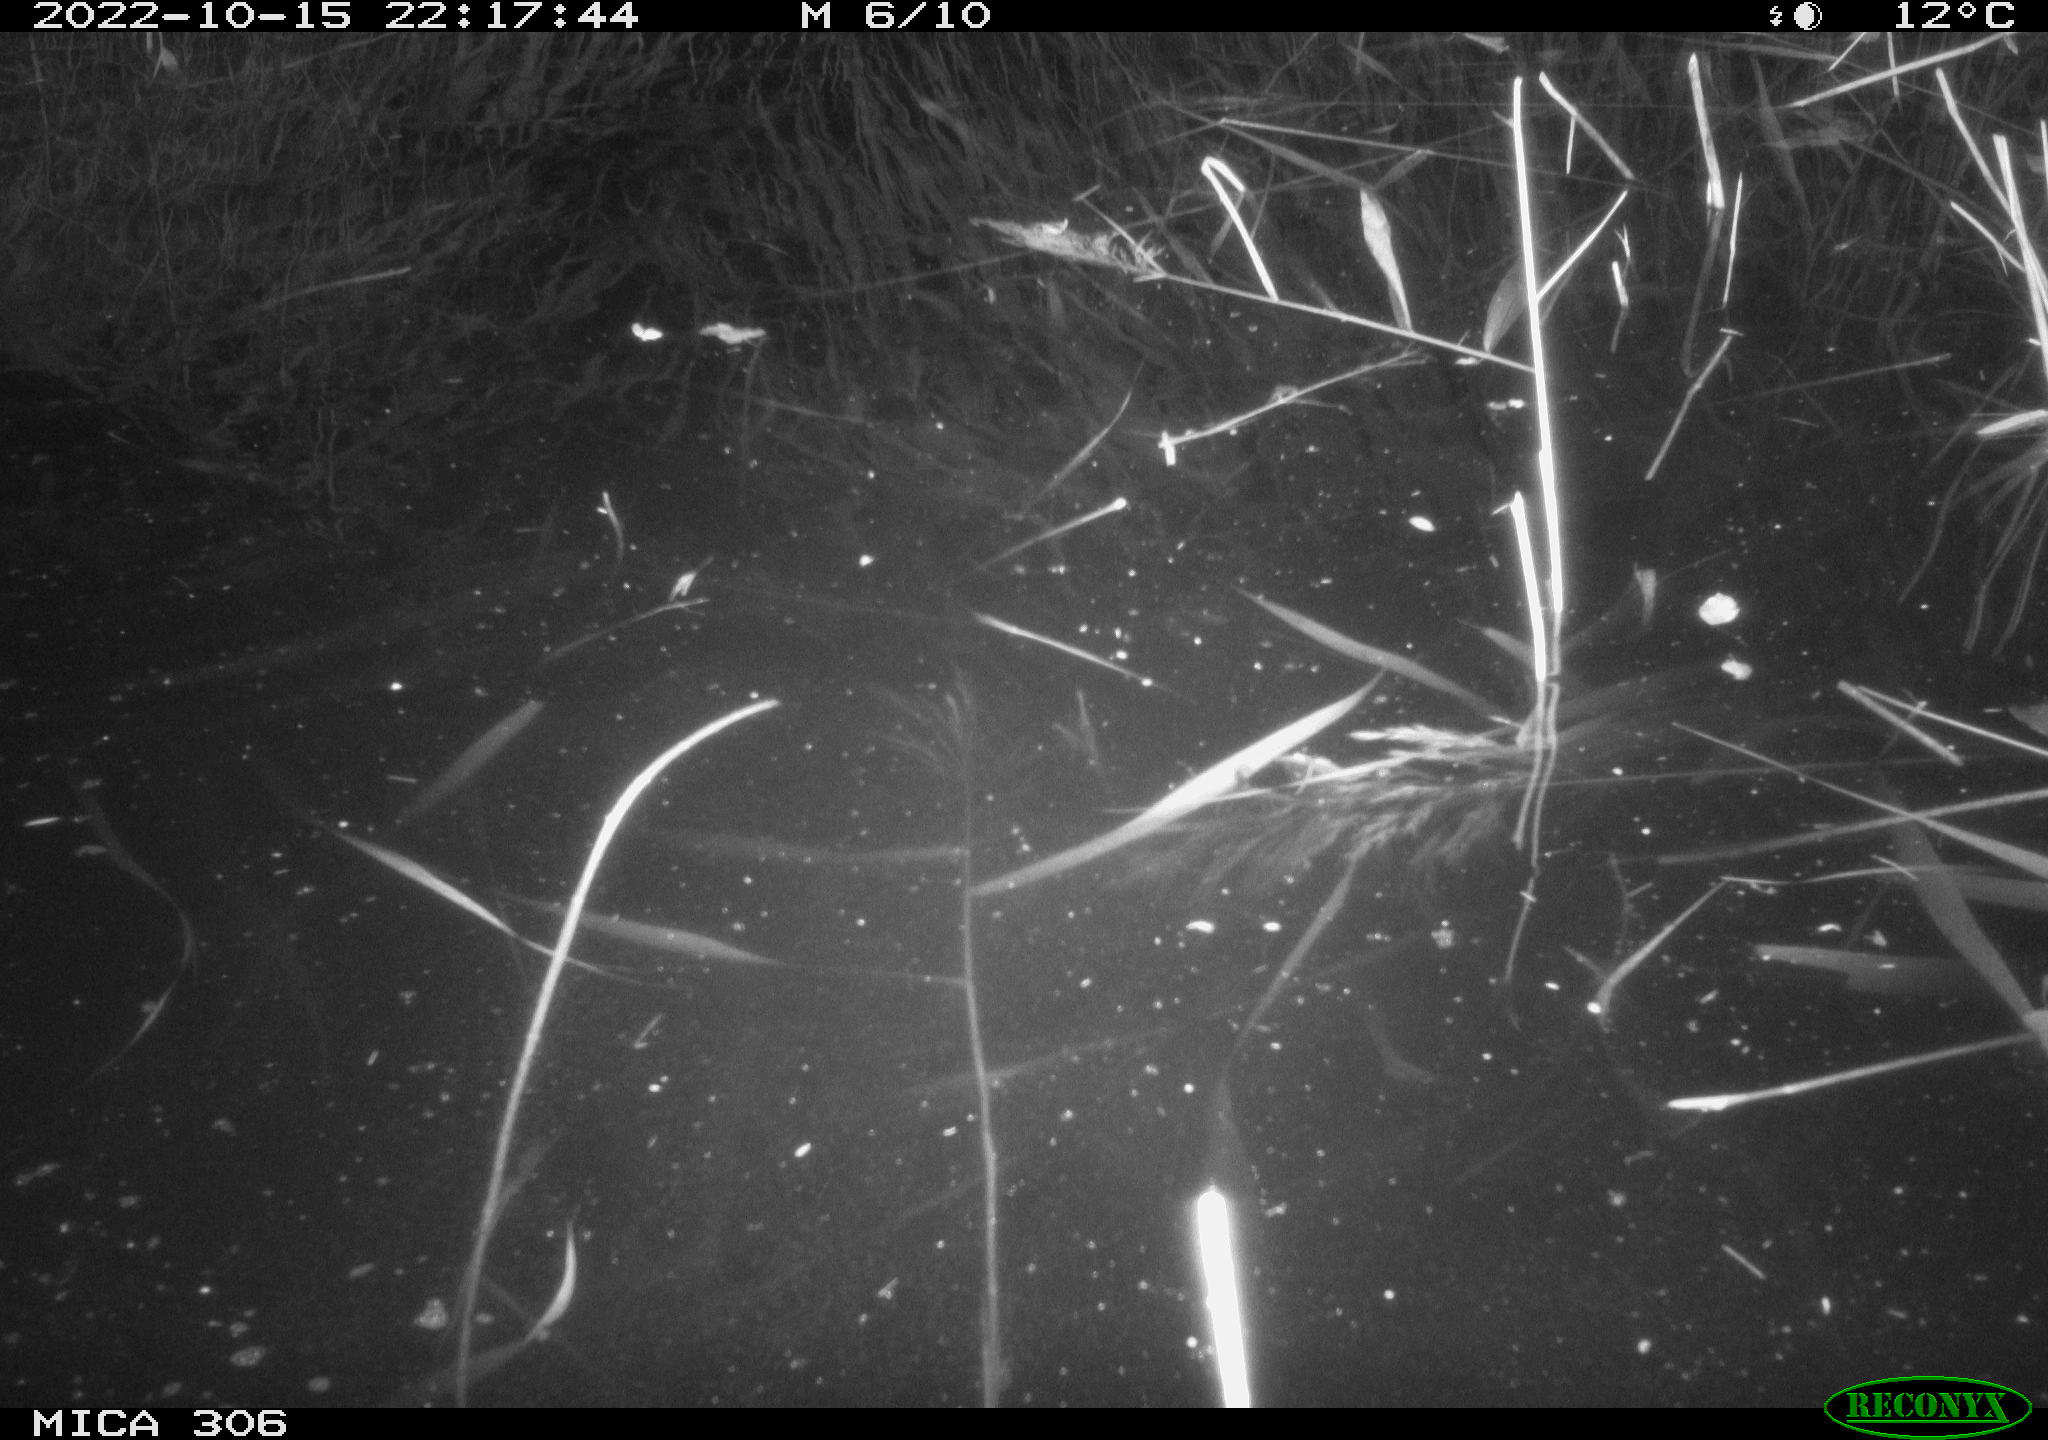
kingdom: Animalia
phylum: Chordata
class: Mammalia
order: Rodentia
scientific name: Rodentia
